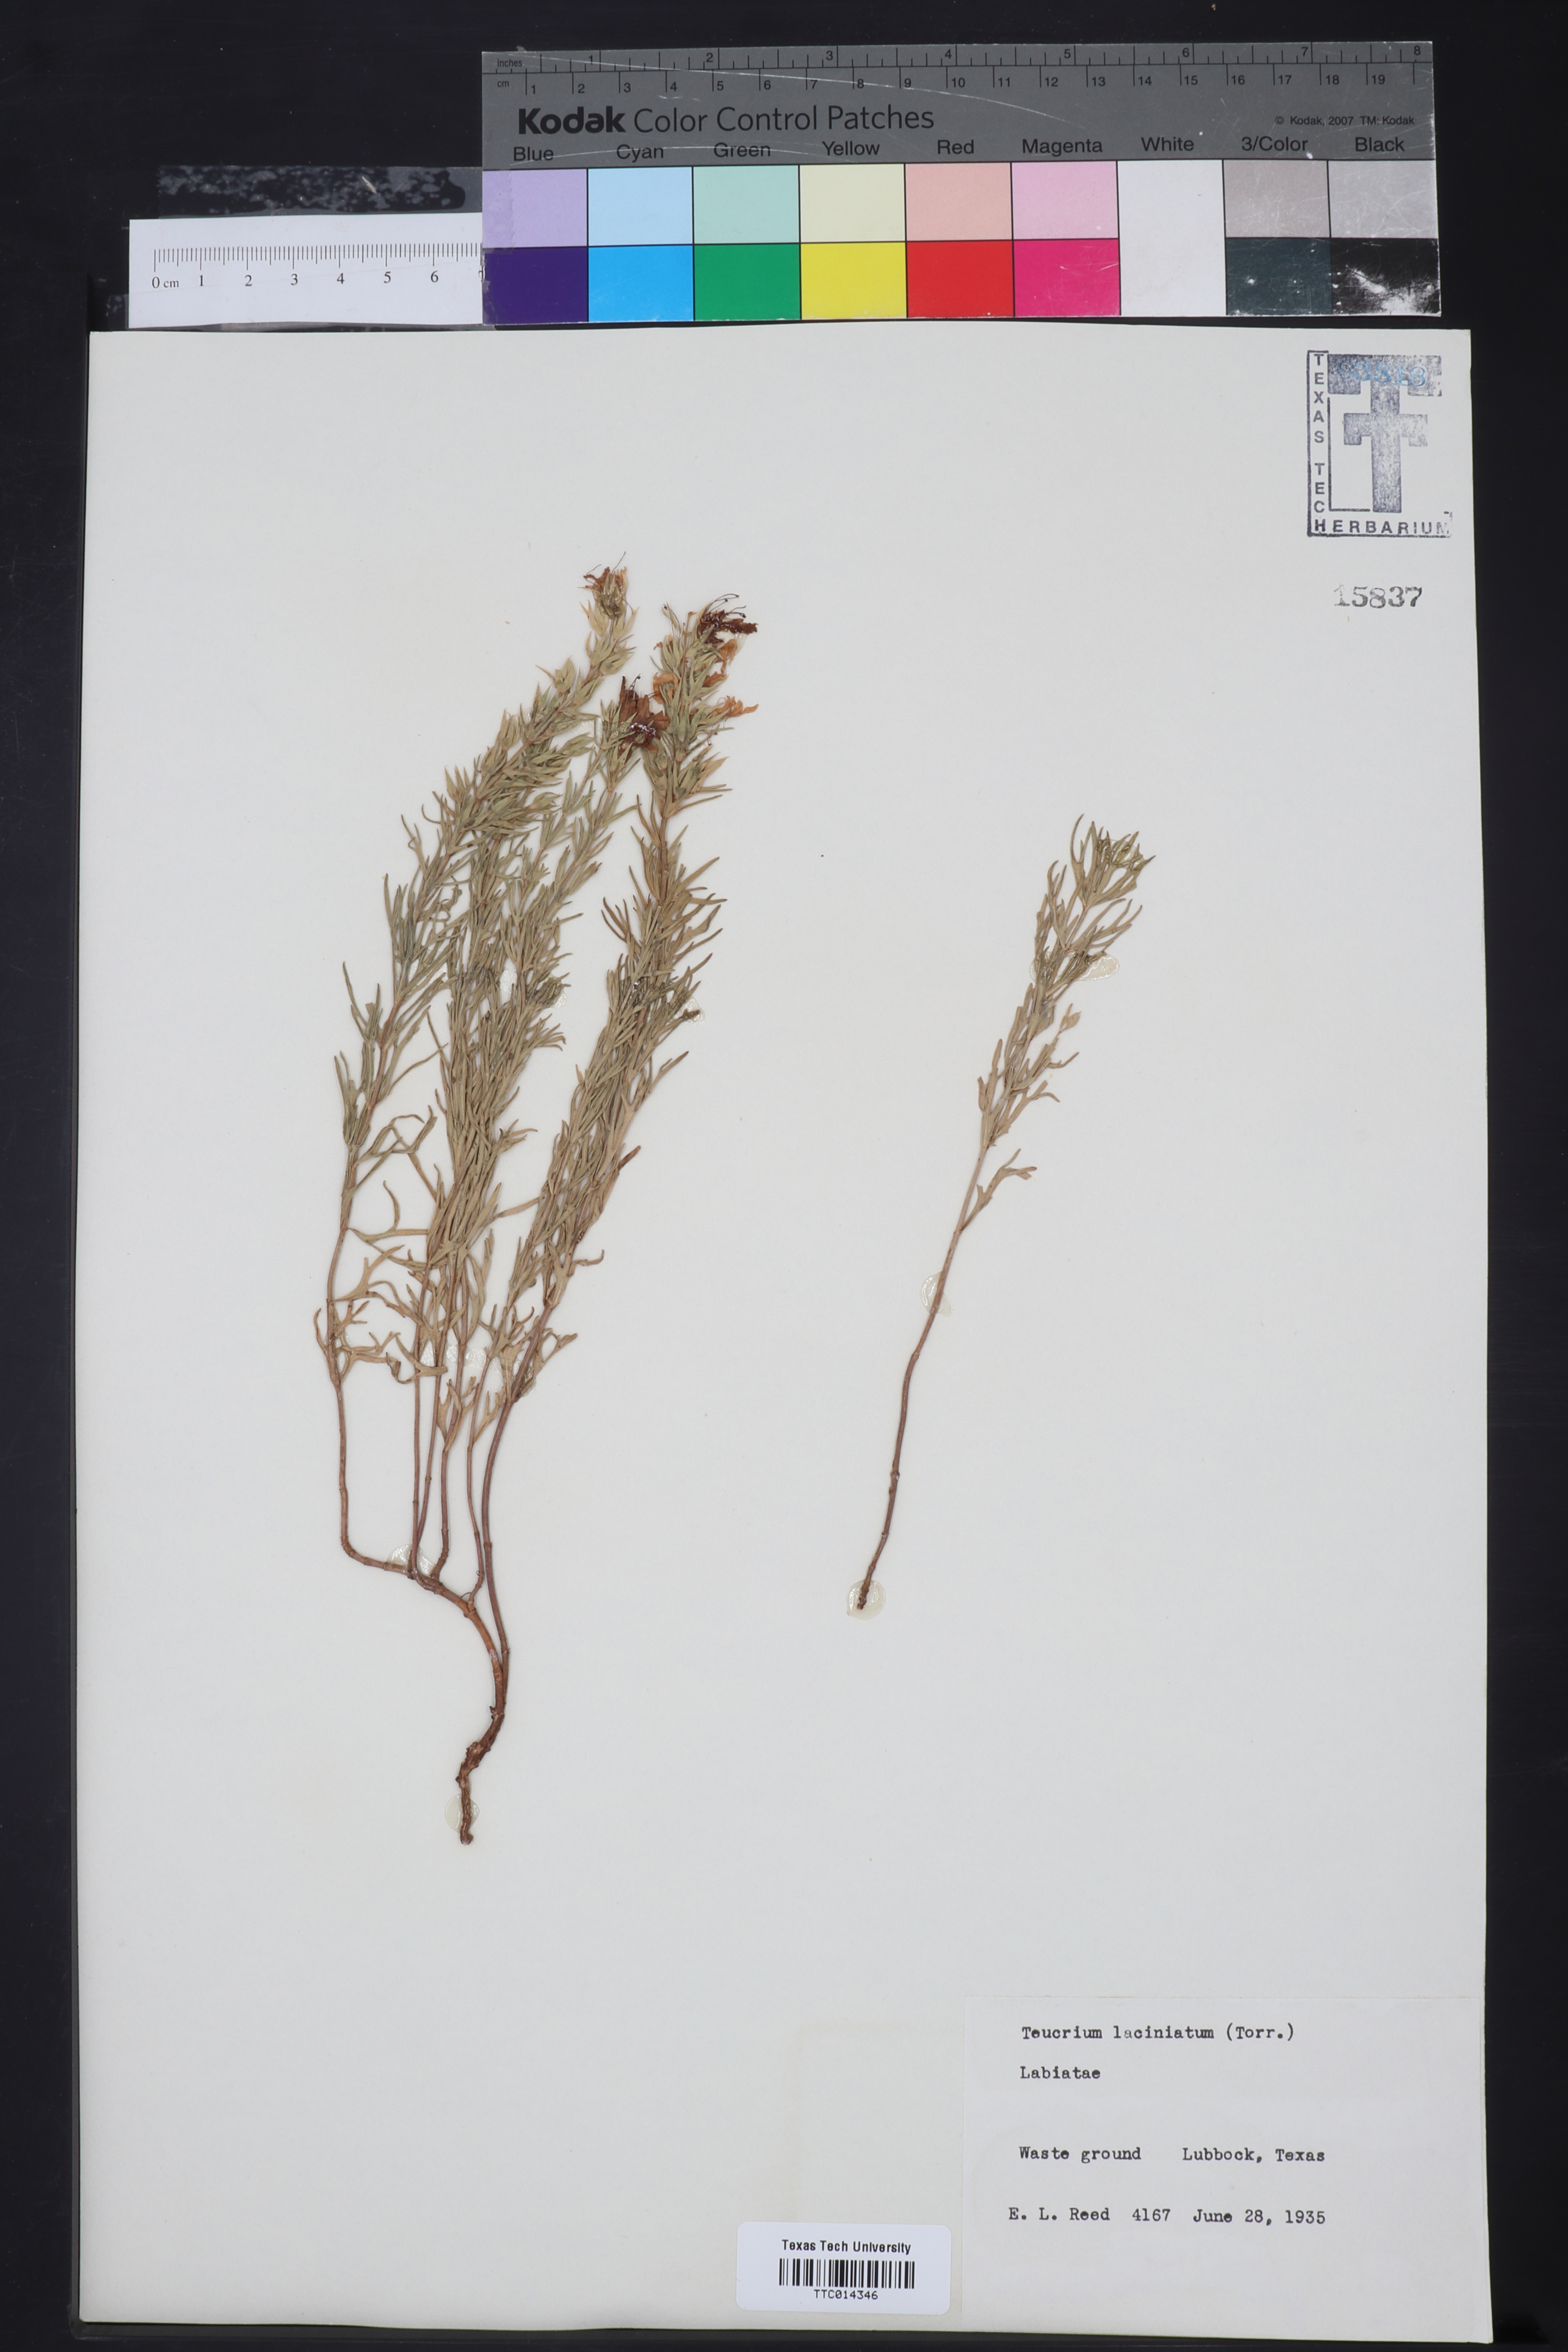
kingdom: Plantae
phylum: Tracheophyta
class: Magnoliopsida
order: Lamiales
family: Lamiaceae
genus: Teucrium
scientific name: Teucrium laciniatum
